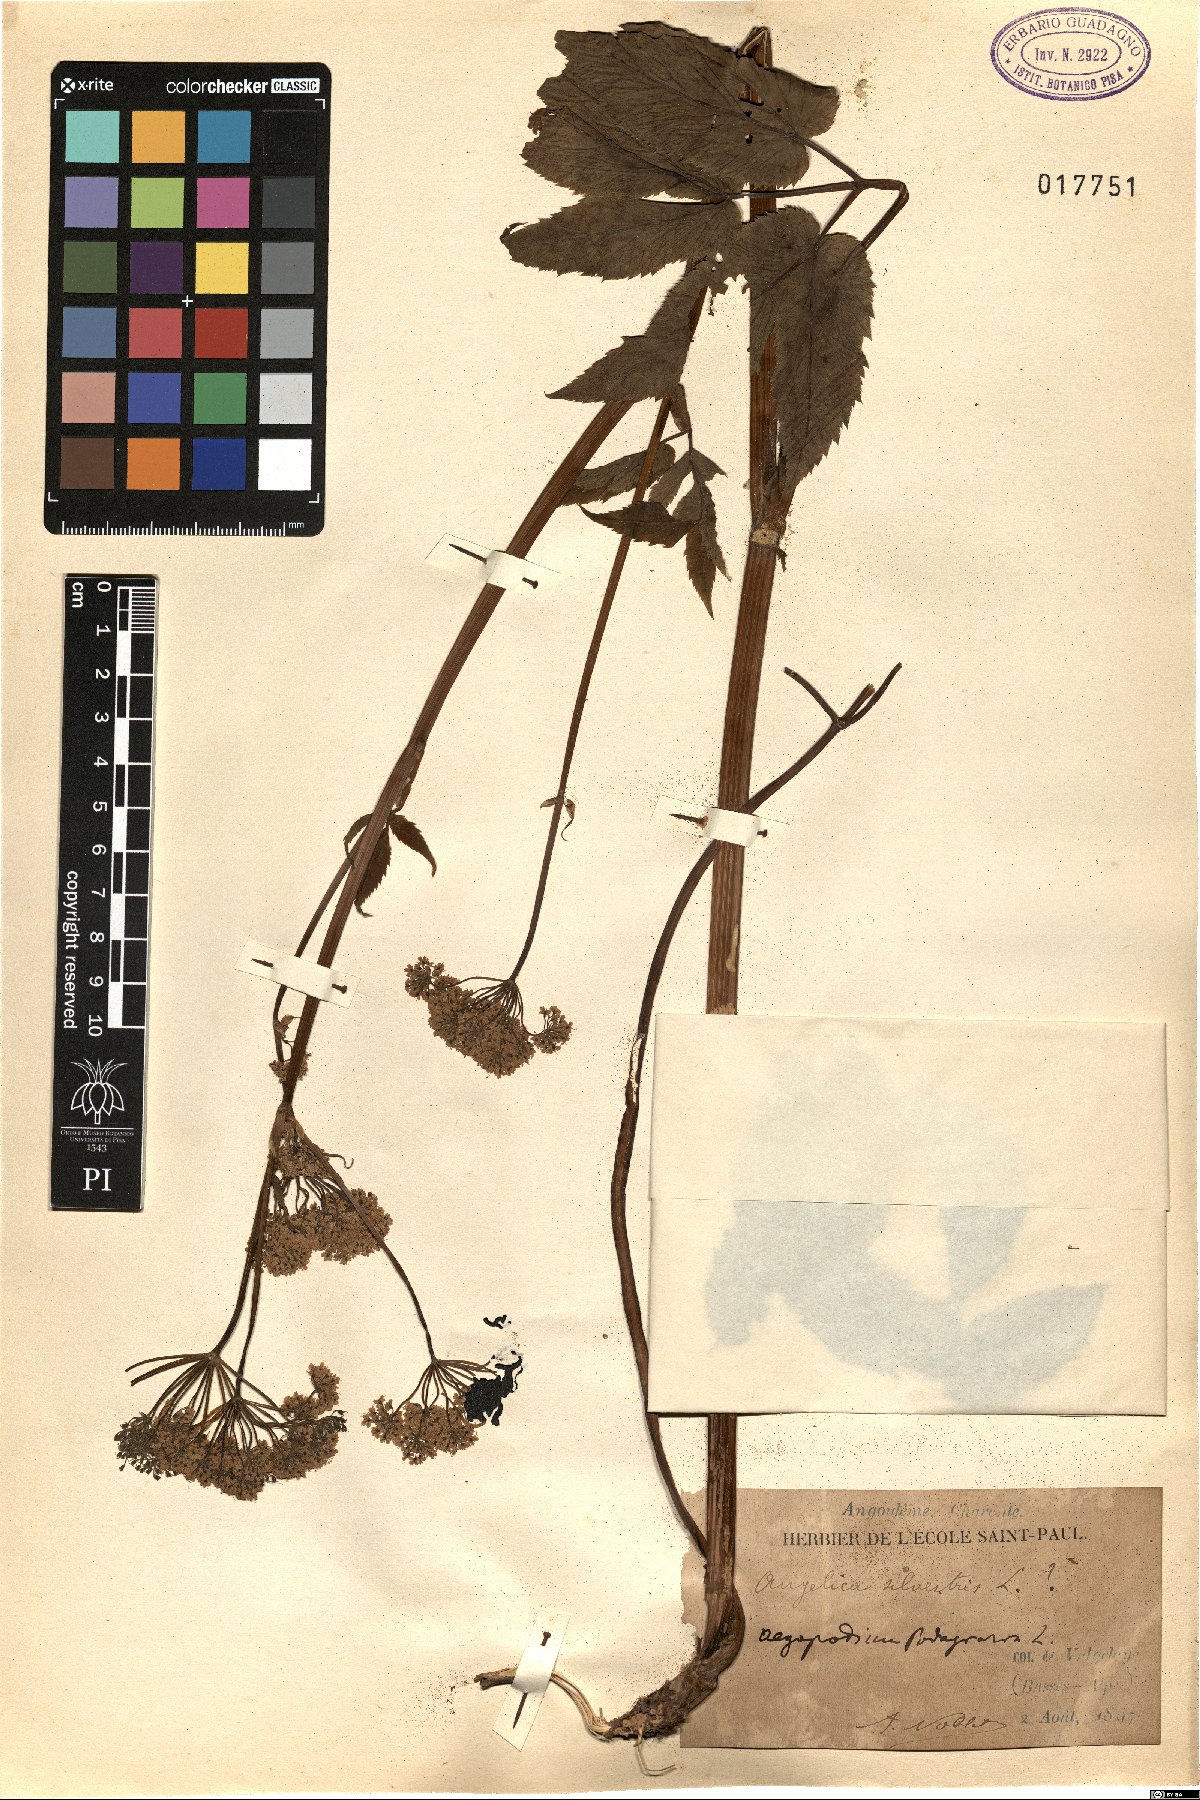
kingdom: Plantae
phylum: Tracheophyta
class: Magnoliopsida
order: Apiales
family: Apiaceae
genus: Aegopodium
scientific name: Aegopodium podagraria
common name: Ground-elder
